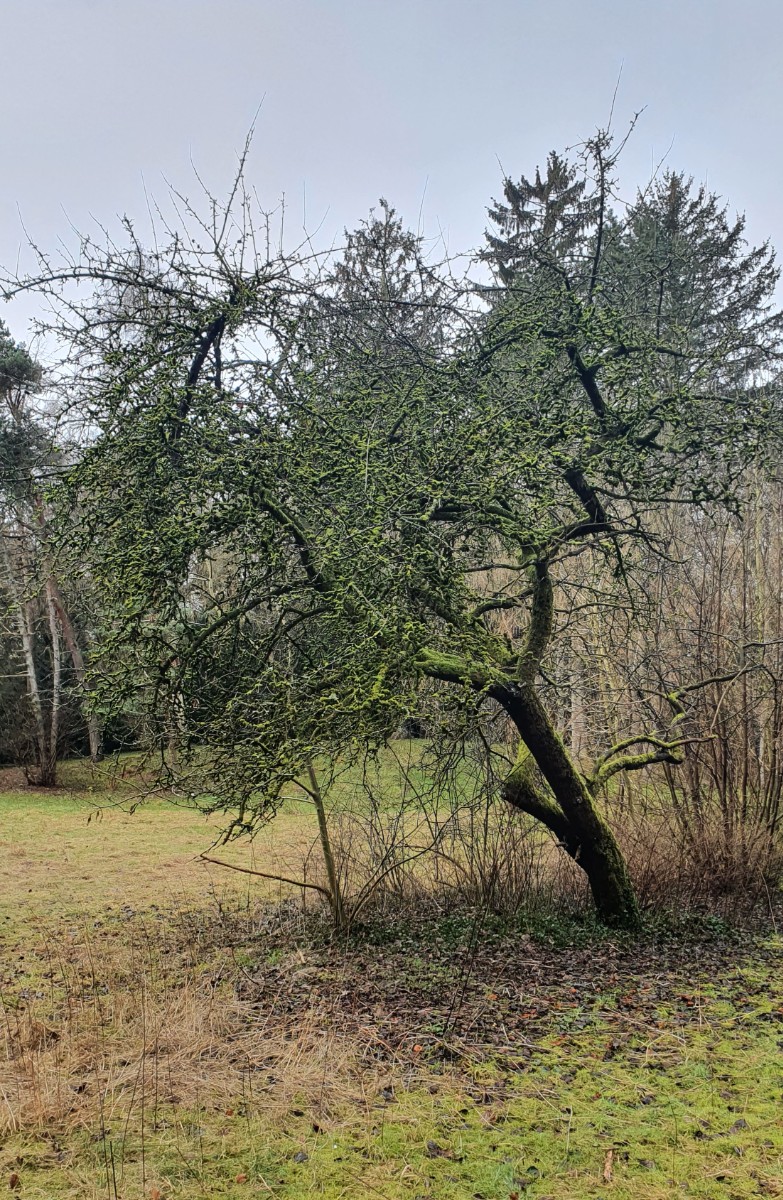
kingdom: Fungi
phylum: Ascomycota
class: Dothideomycetes
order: Pleosporales
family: Thyridariaceae
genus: Thyridaria
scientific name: Thyridaria macrostomoides
